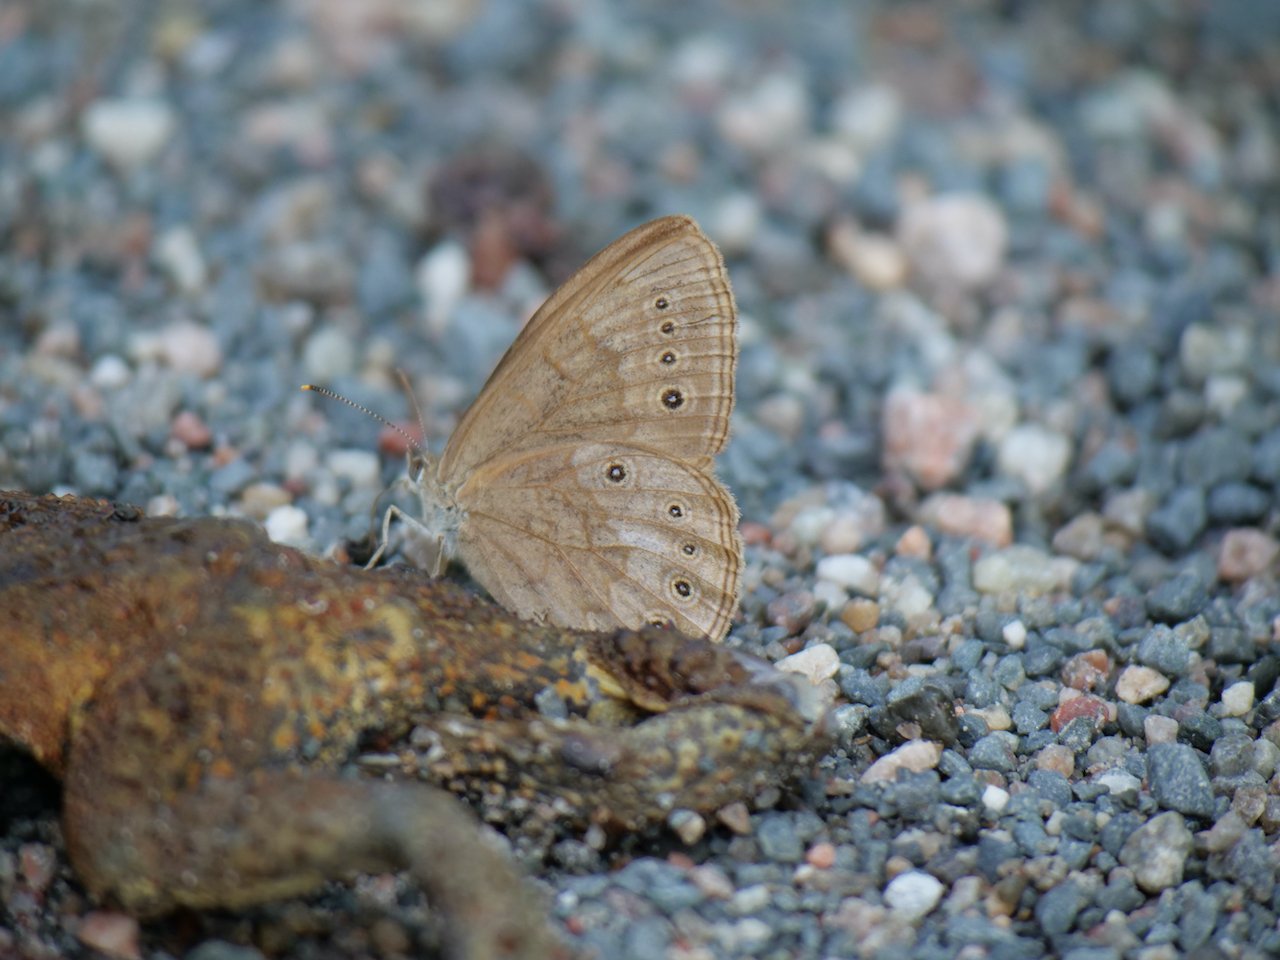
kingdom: Animalia
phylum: Arthropoda
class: Insecta
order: Lepidoptera
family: Nymphalidae
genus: Lethe
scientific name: Lethe eurydice
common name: Eyed Brown
